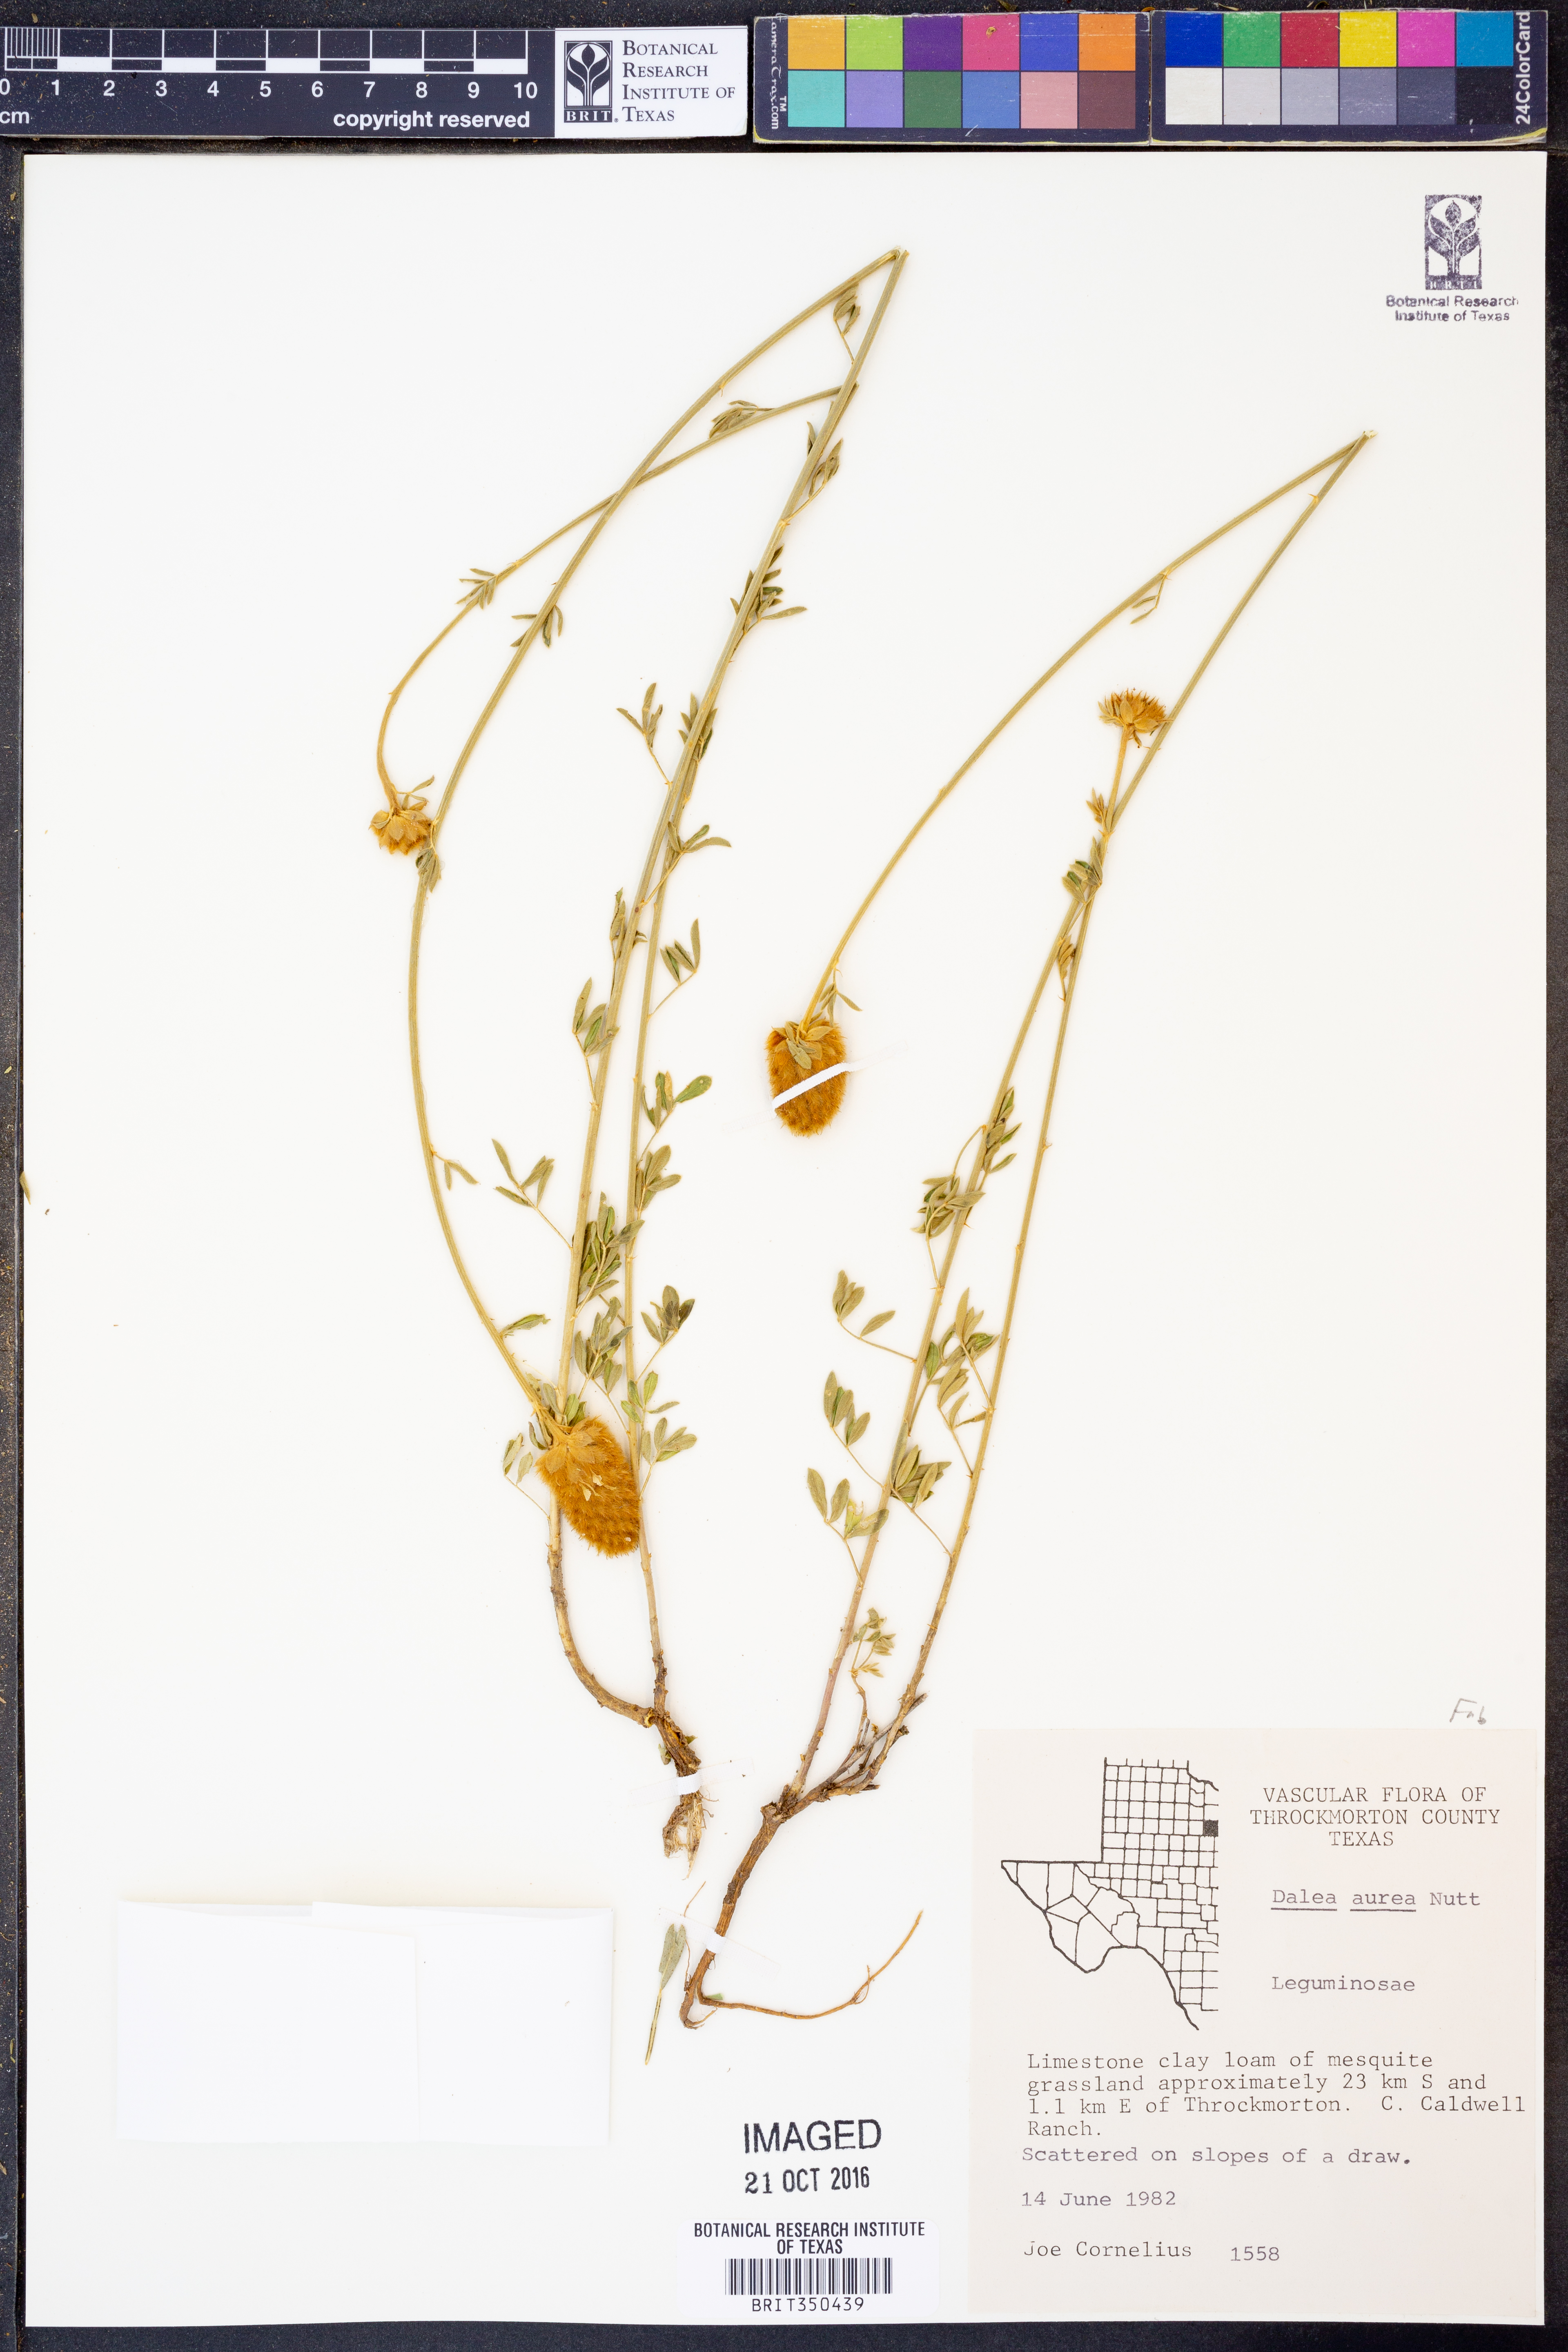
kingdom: Plantae
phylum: Tracheophyta
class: Magnoliopsida
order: Fabales
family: Fabaceae
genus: Dalea
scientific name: Dalea aurea
